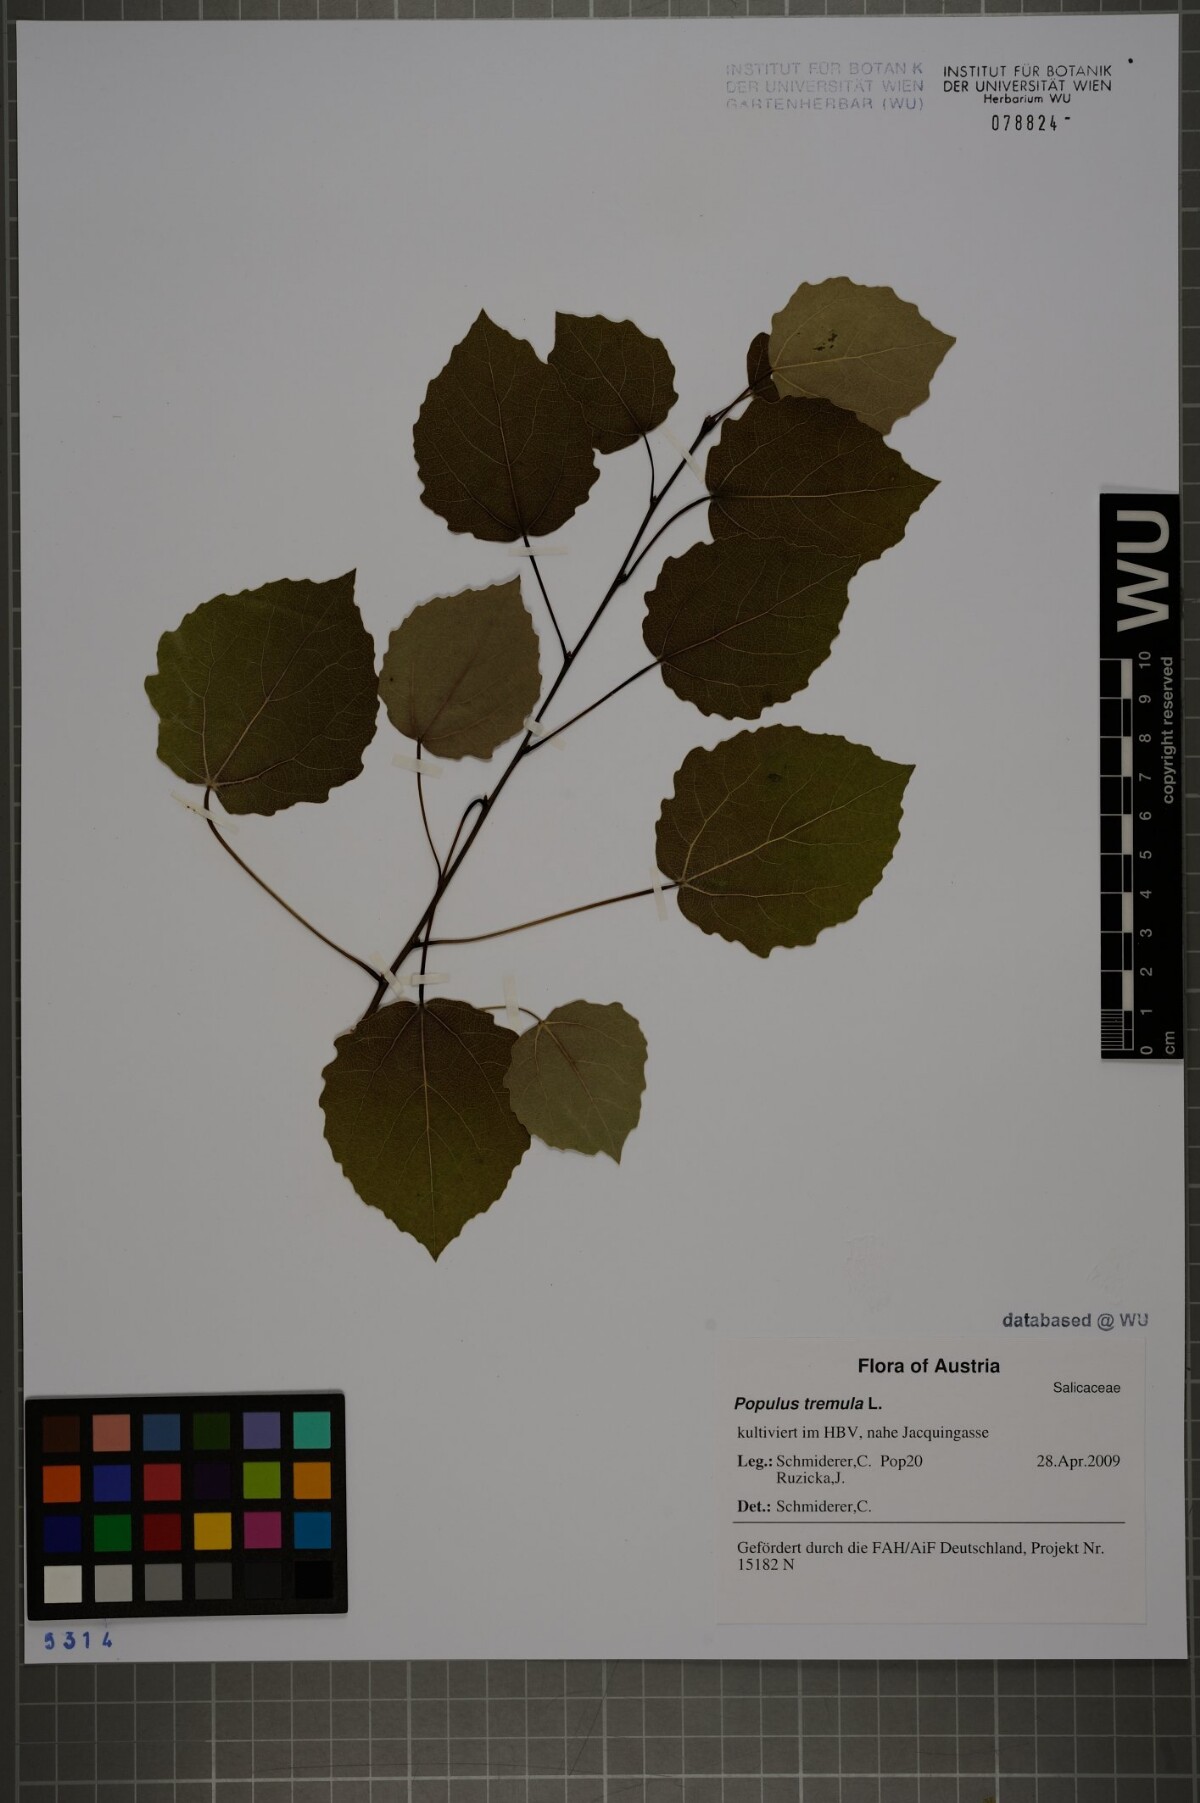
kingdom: Plantae
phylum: Tracheophyta
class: Magnoliopsida
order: Malpighiales
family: Salicaceae
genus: Populus
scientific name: Populus tremula
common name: European aspen
